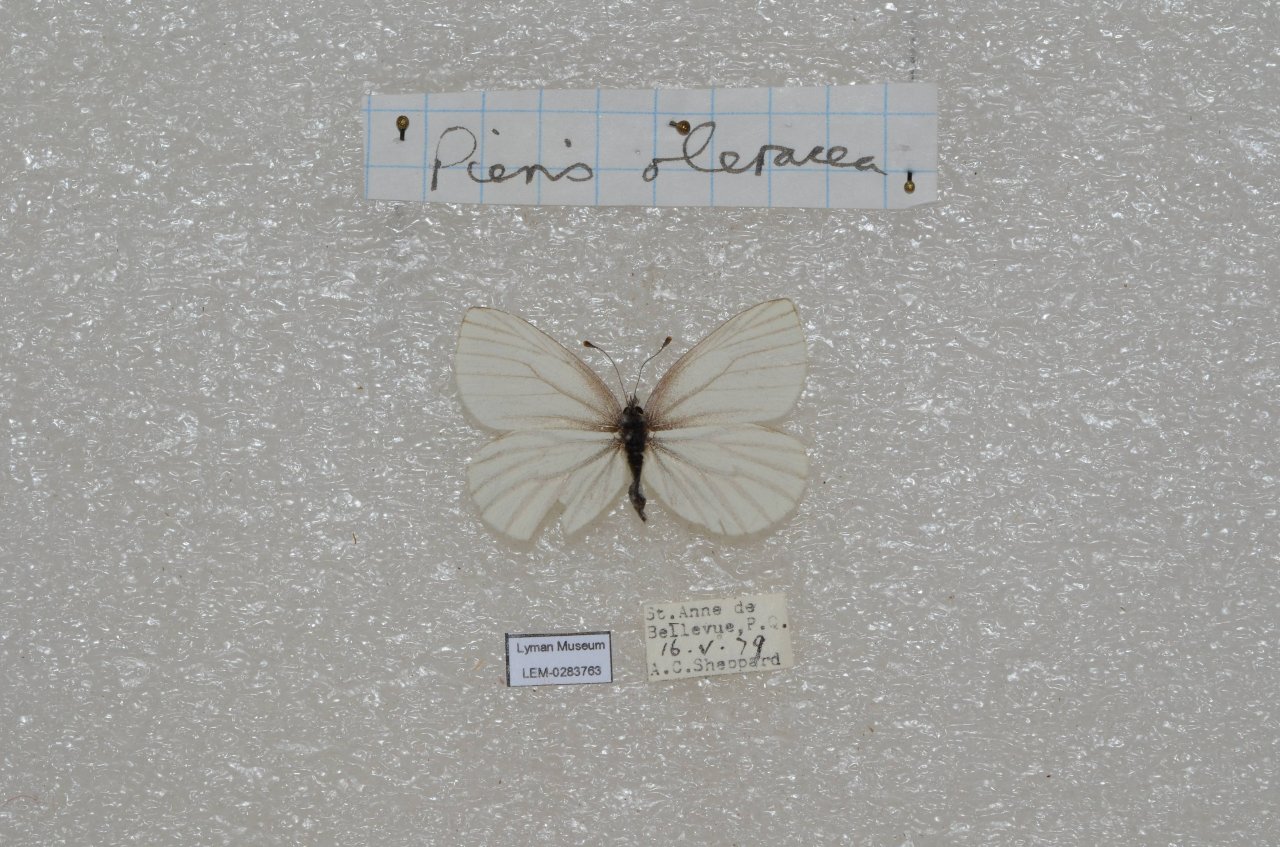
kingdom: Animalia
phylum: Arthropoda
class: Insecta
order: Lepidoptera
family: Pieridae
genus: Pieris
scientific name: Pieris oleracea
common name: Mustard White
